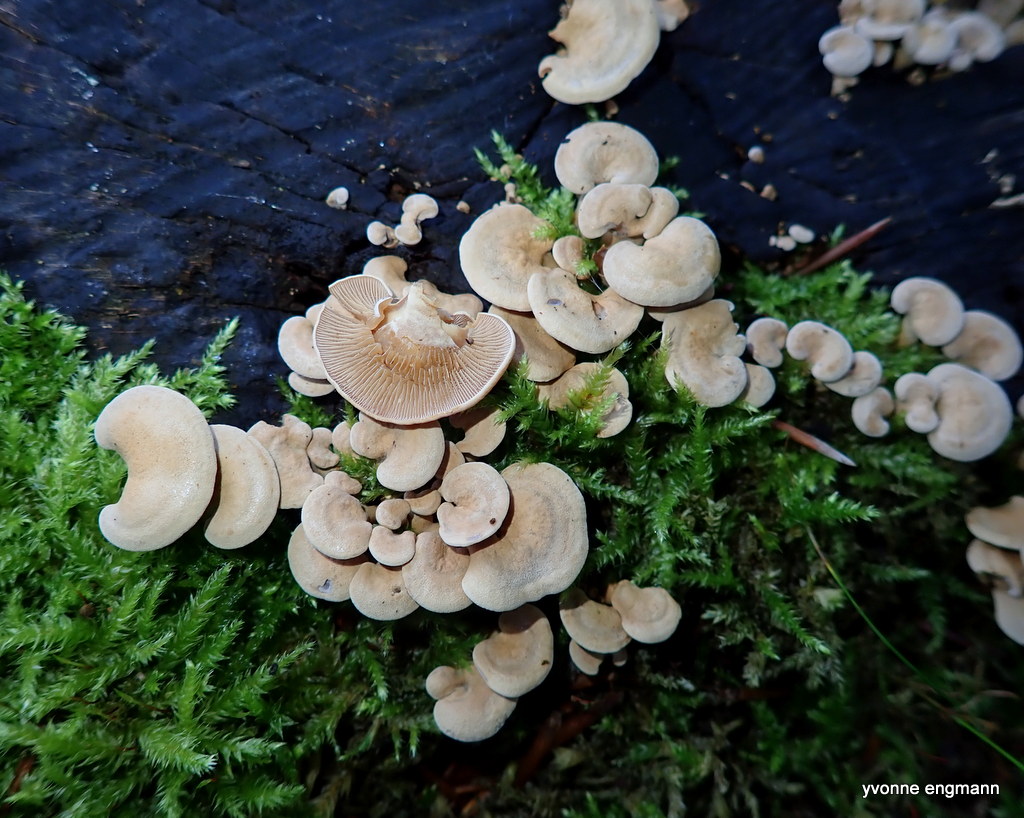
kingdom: Fungi
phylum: Basidiomycota
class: Agaricomycetes
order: Agaricales
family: Mycenaceae
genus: Panellus
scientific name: Panellus stipticus
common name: kliddet epaulethat
